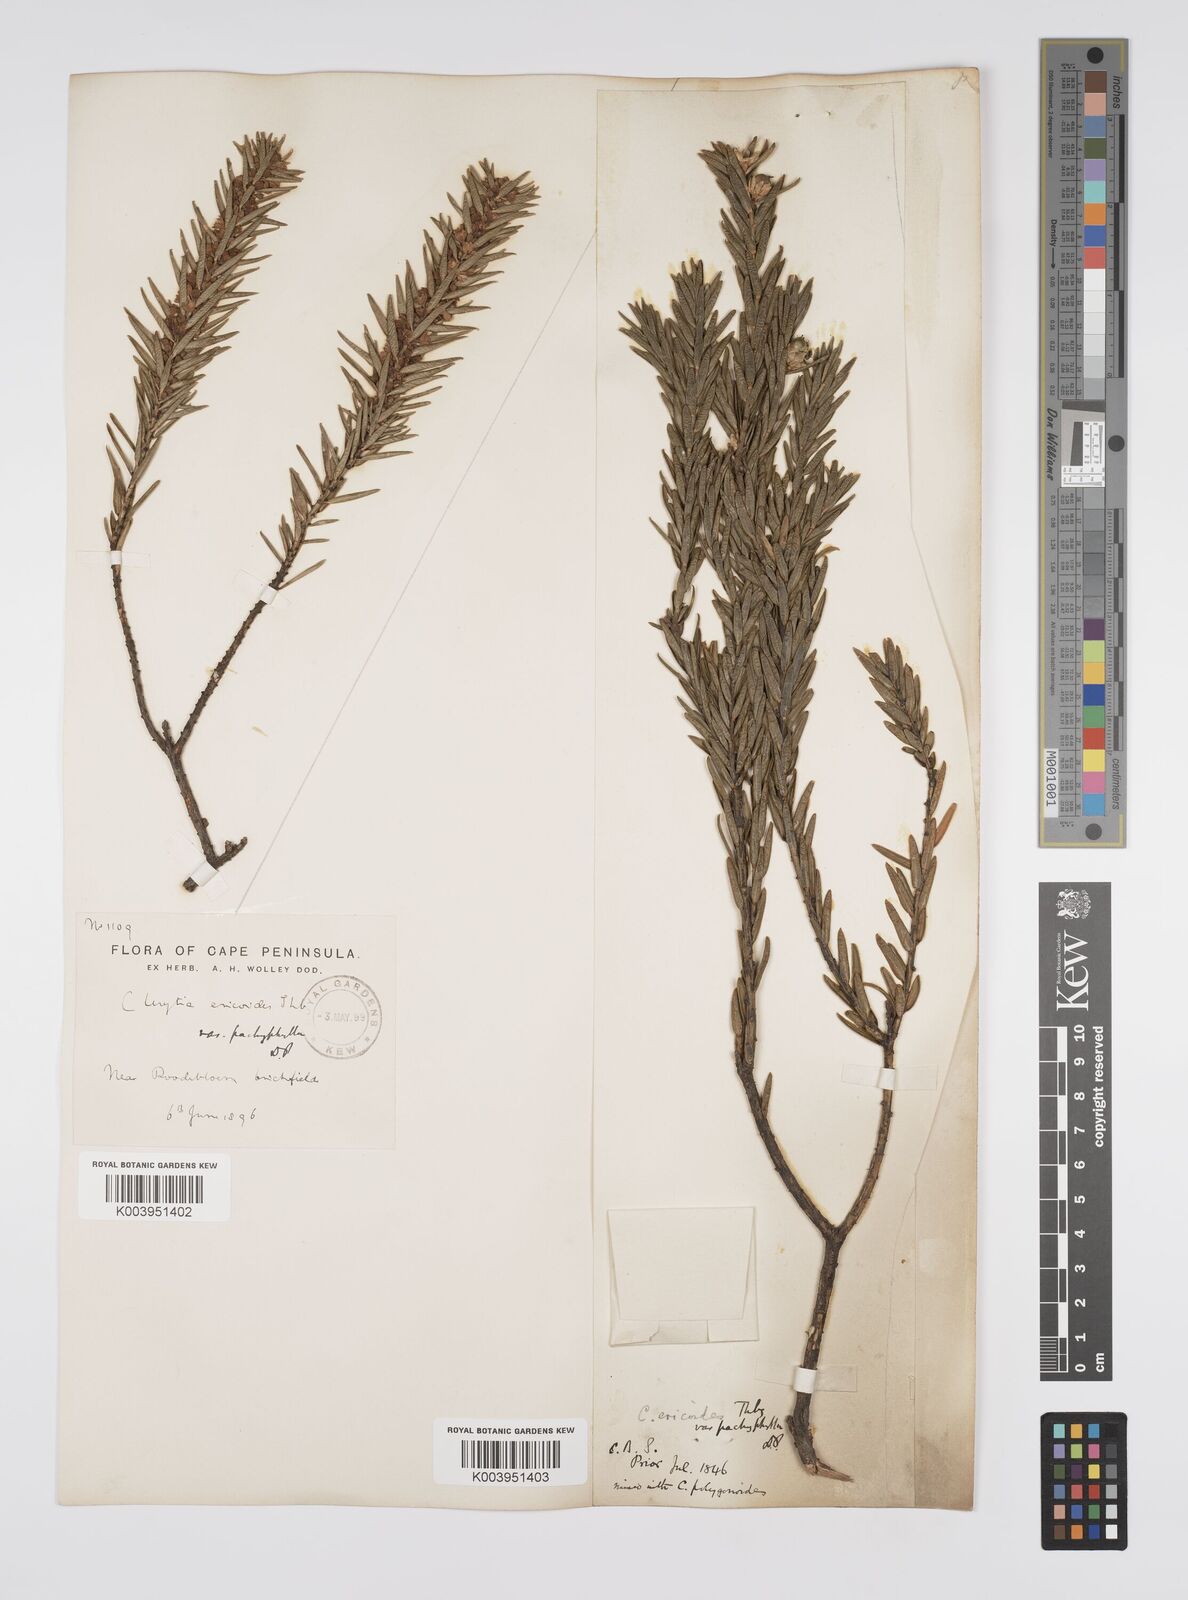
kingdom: Plantae
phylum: Tracheophyta
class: Magnoliopsida
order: Malpighiales
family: Peraceae
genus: Clutia
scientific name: Clutia
